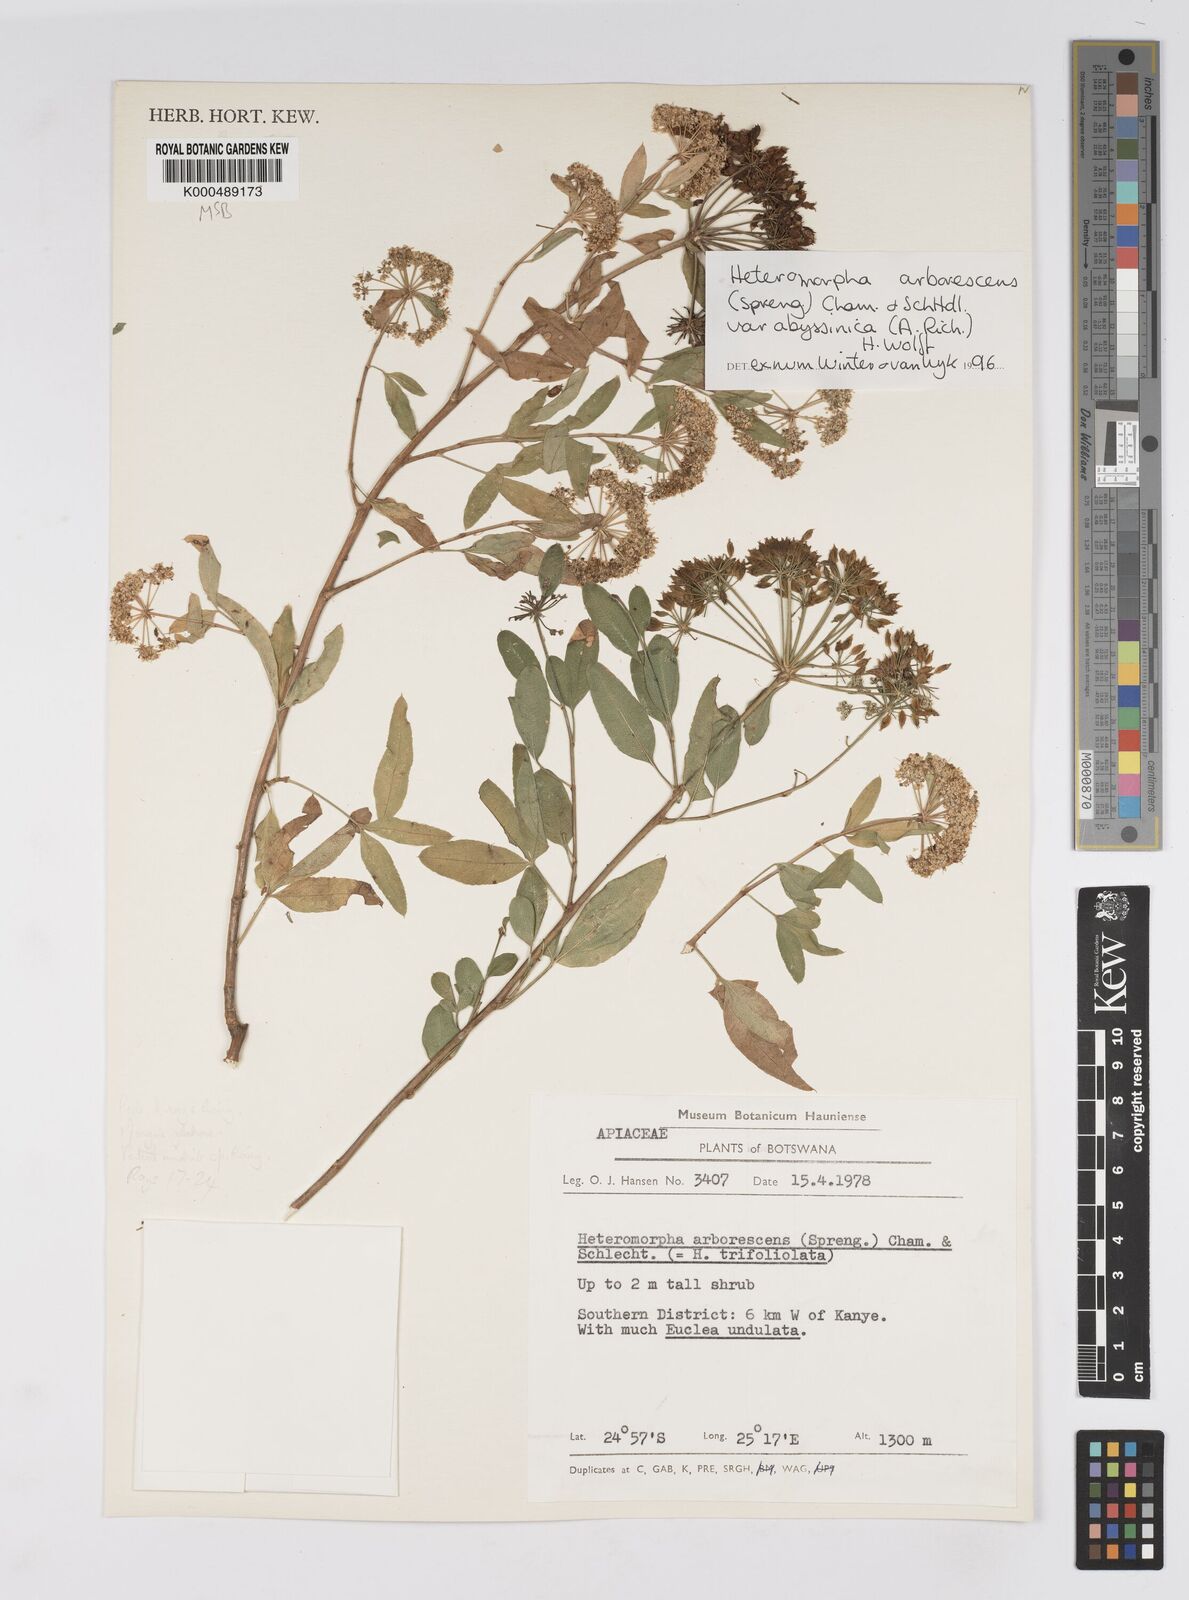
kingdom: Plantae
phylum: Tracheophyta
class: Magnoliopsida
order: Apiales
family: Apiaceae
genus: Heteromorpha
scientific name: Heteromorpha arborescens
